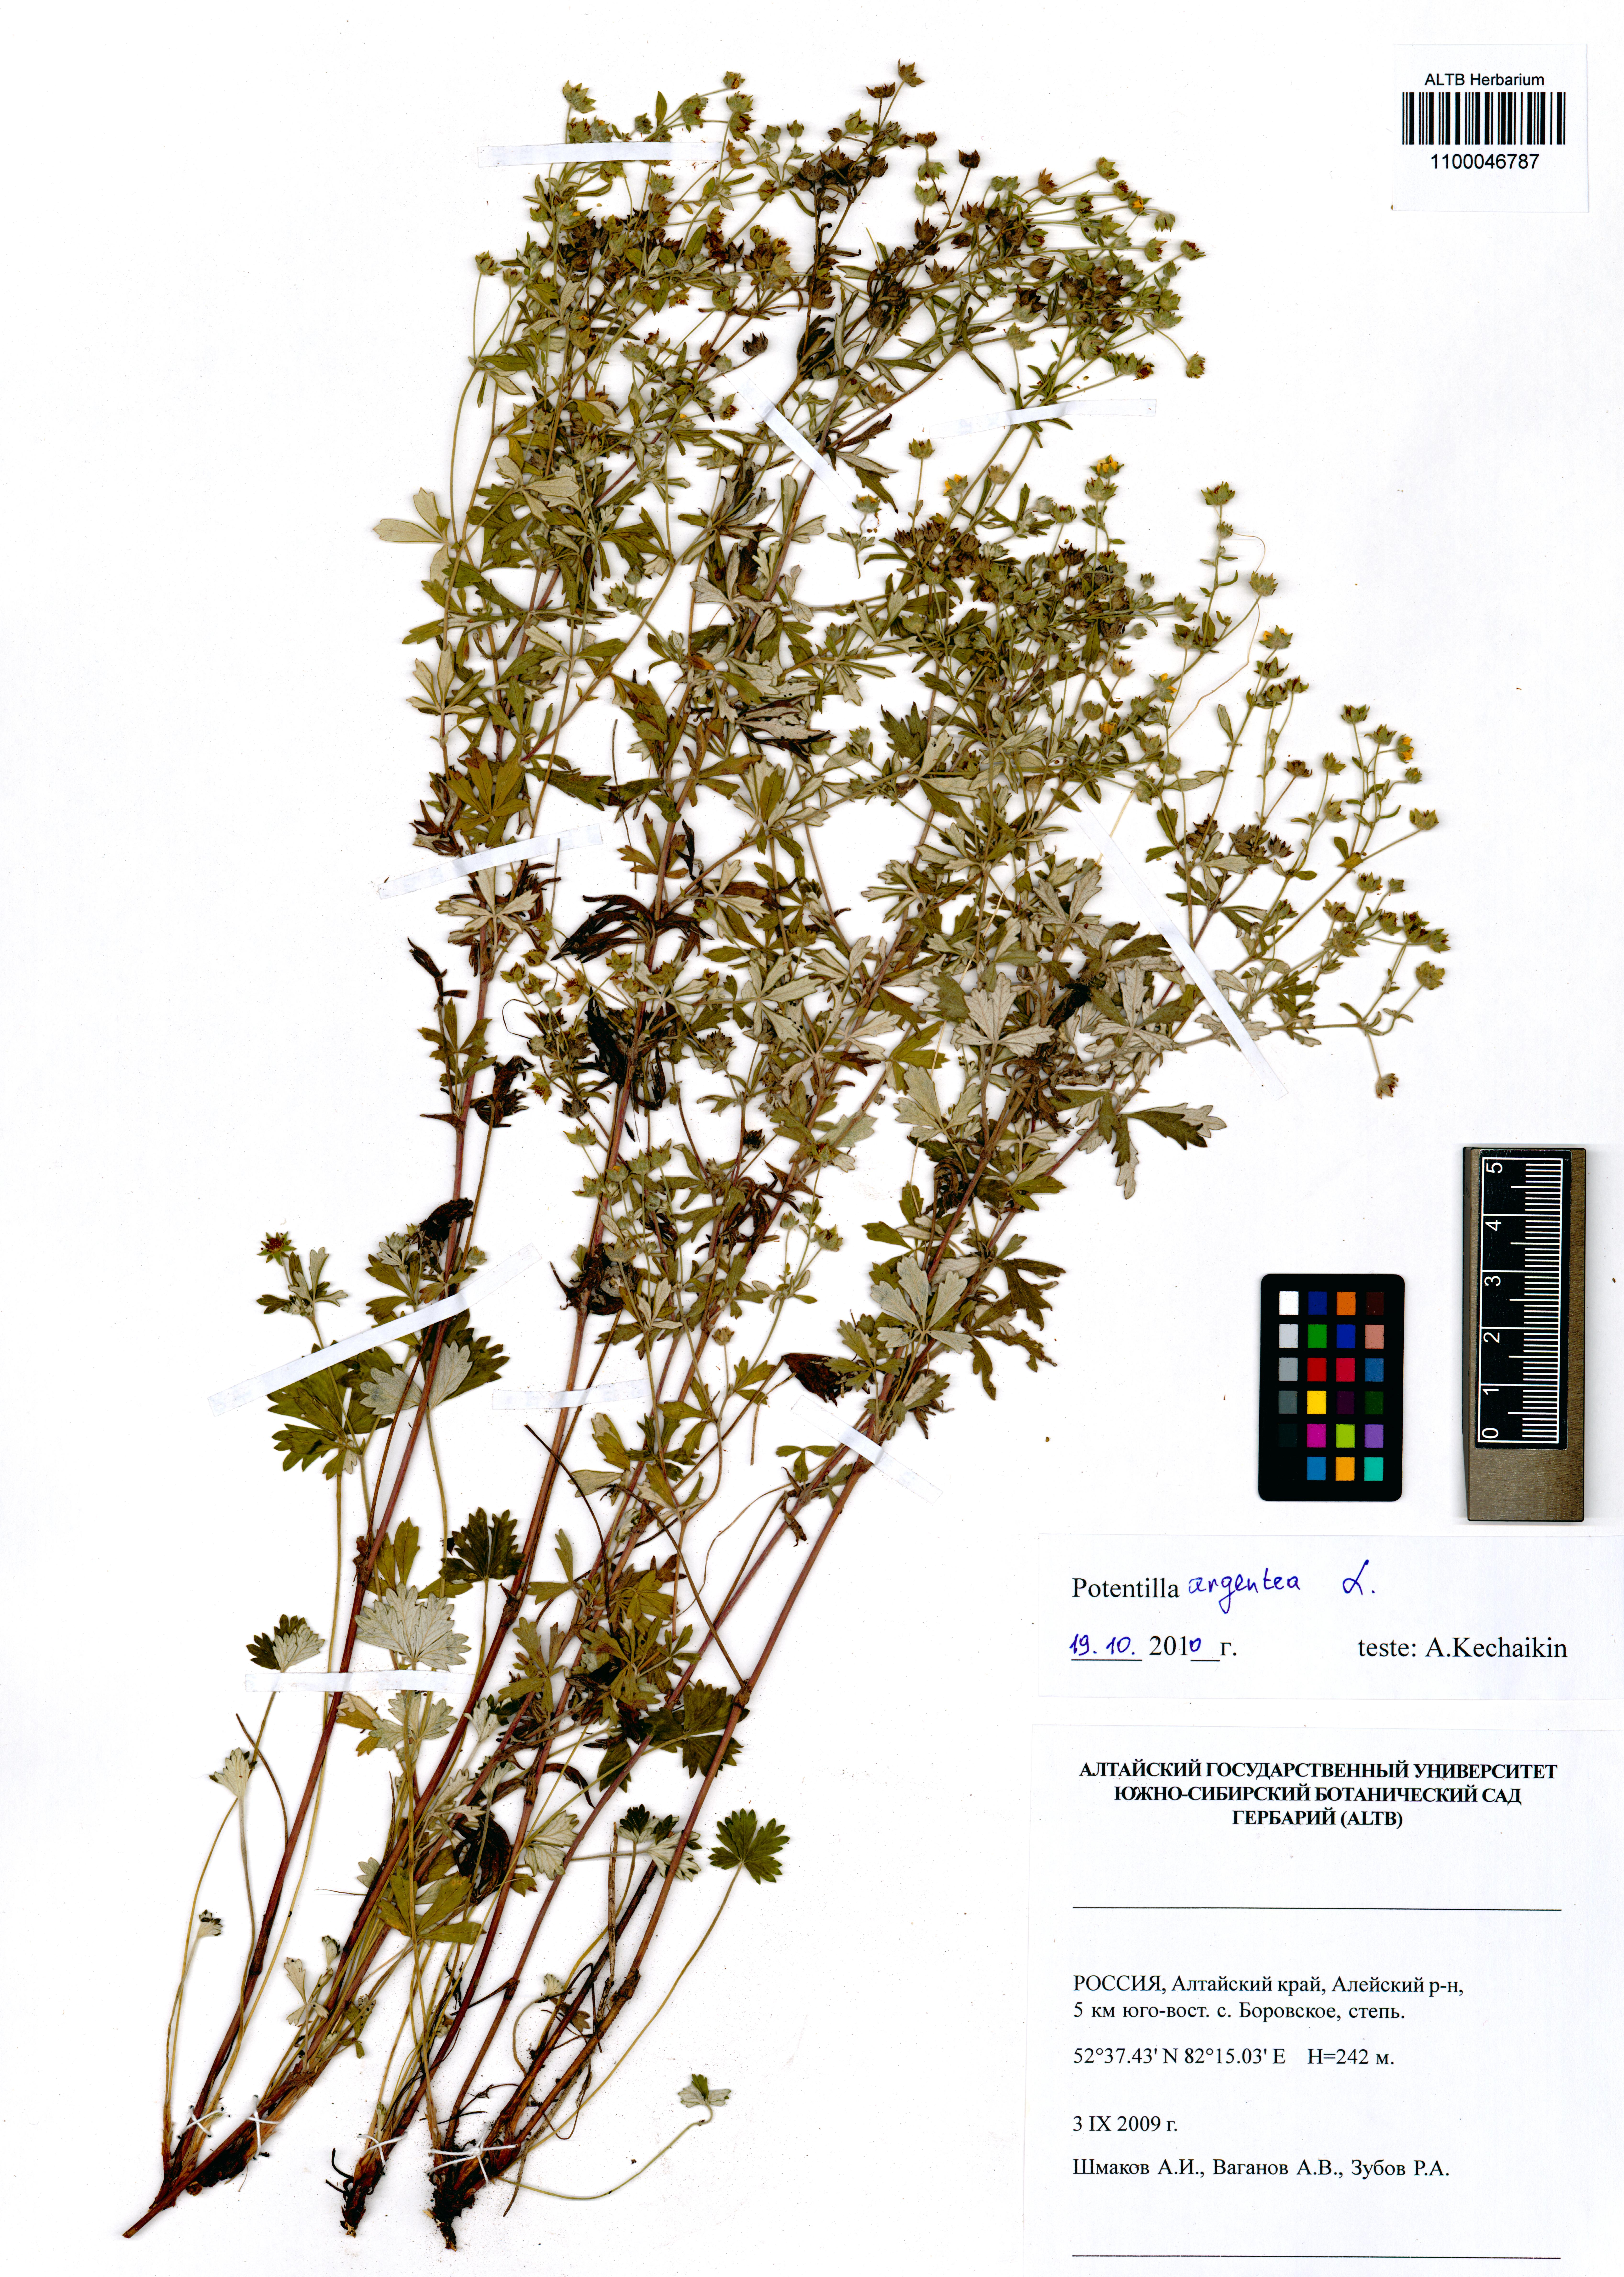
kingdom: Plantae
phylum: Tracheophyta
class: Magnoliopsida
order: Rosales
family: Rosaceae
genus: Potentilla
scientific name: Potentilla argentea
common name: Hoary cinquefoil
